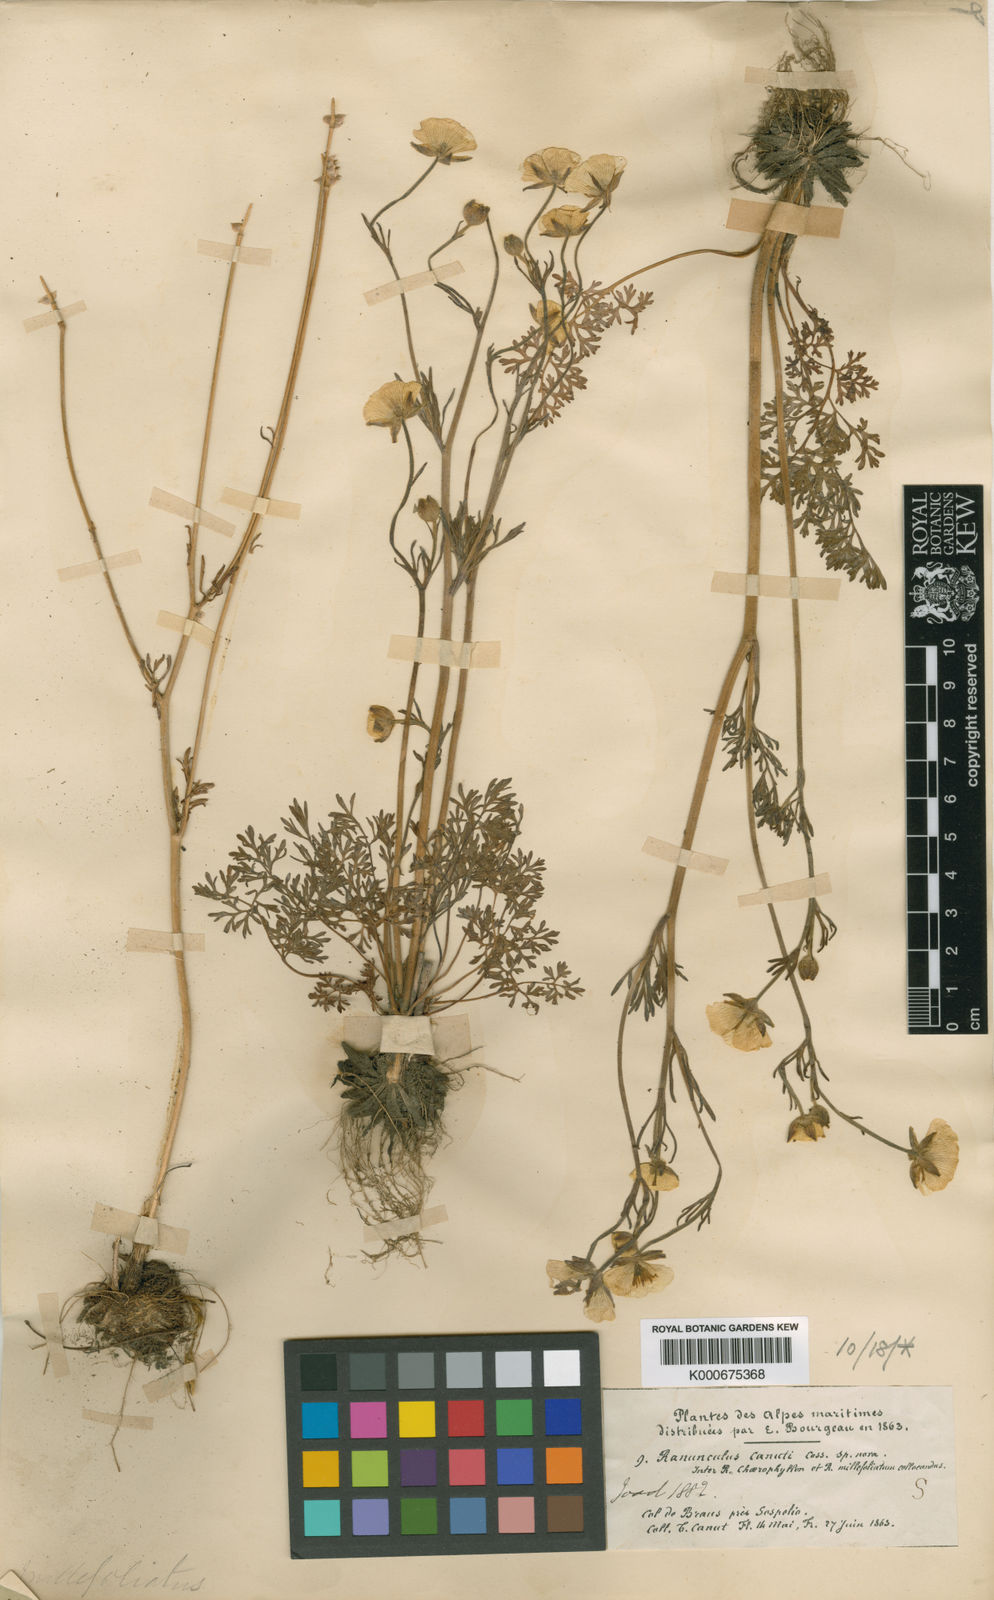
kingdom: Plantae
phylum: Tracheophyta
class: Magnoliopsida
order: Ranunculales
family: Ranunculaceae
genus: Ranunculus
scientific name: Ranunculus garganicus
